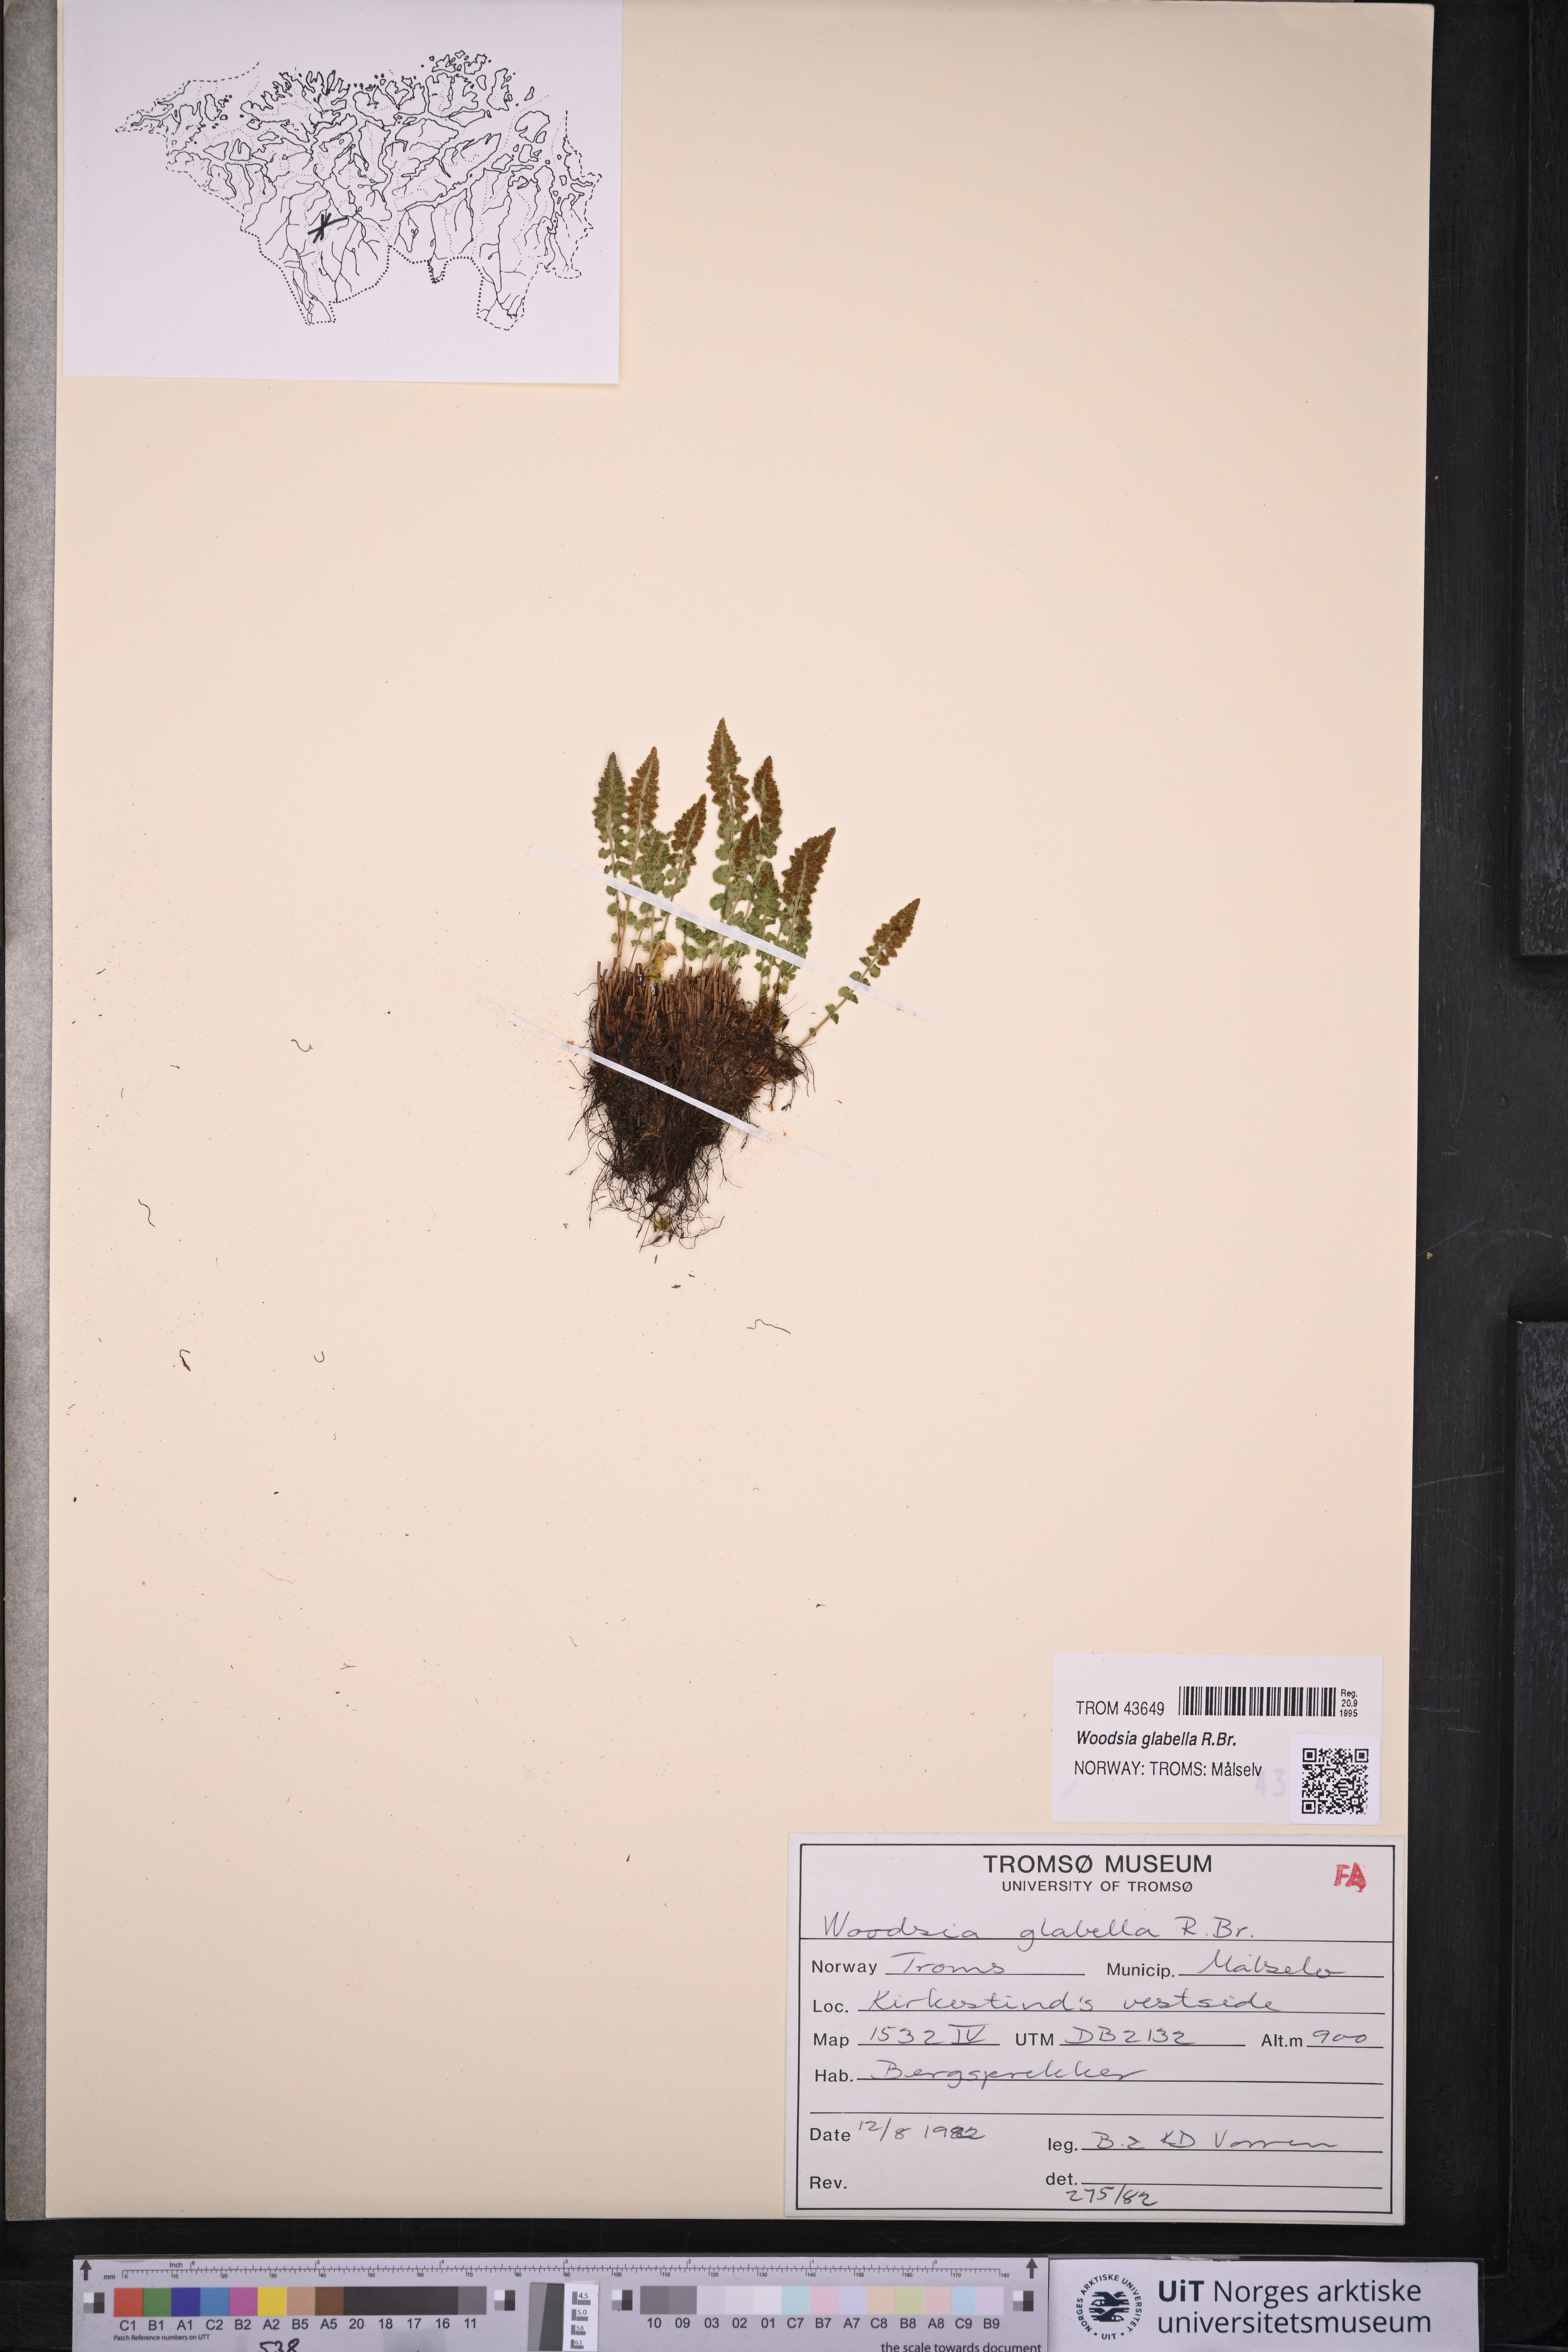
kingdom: Plantae
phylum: Tracheophyta
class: Polypodiopsida
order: Polypodiales
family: Woodsiaceae
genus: Woodsia
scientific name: Woodsia glabella
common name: Smooth woodsia
